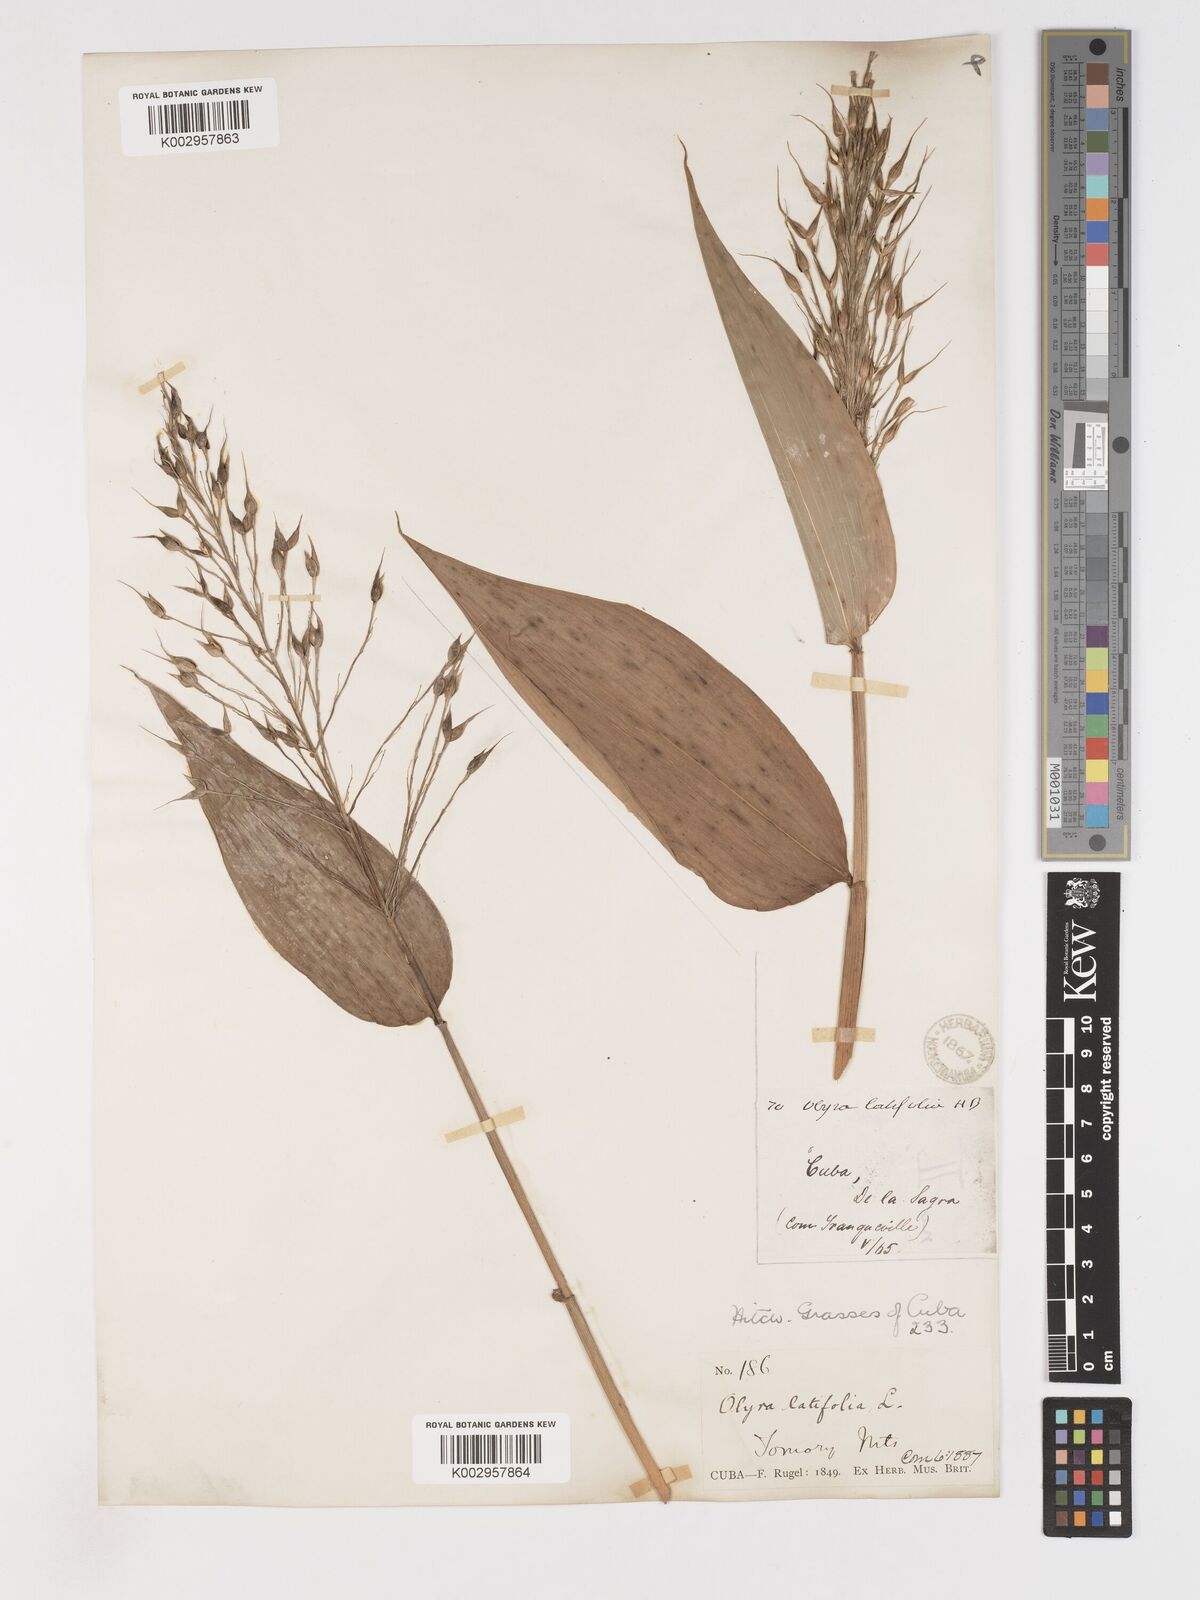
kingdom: Plantae
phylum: Tracheophyta
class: Liliopsida
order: Poales
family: Poaceae
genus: Olyra
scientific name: Olyra latifolia
